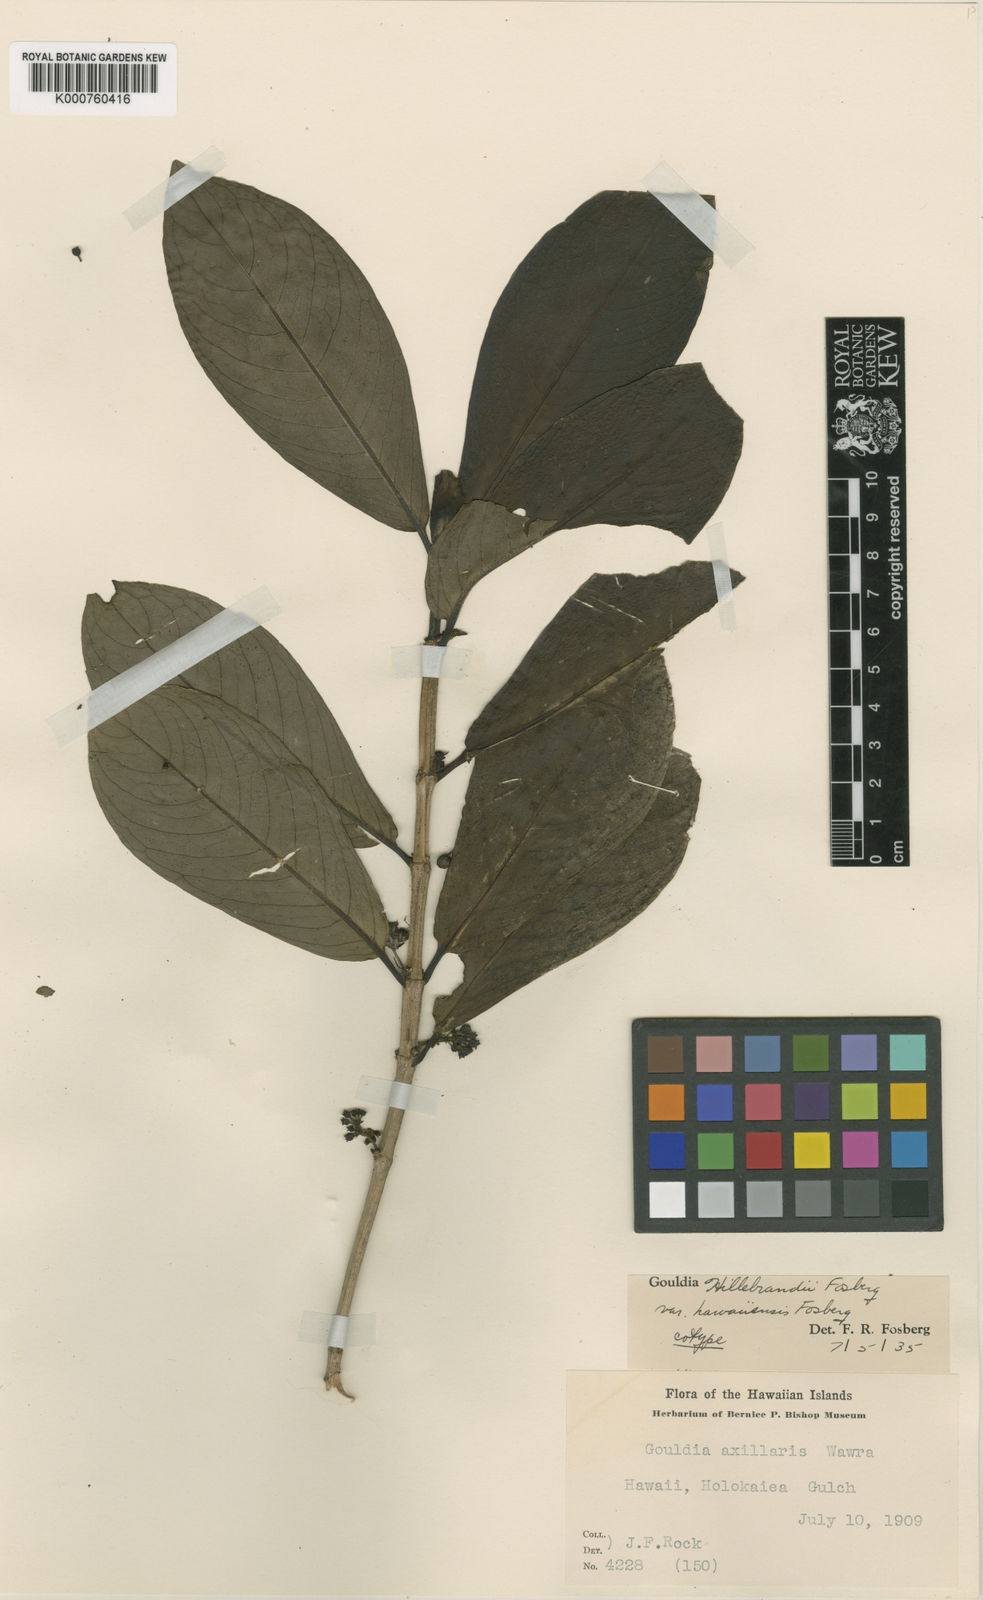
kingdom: Plantae
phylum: Tracheophyta
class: Magnoliopsida
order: Gentianales
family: Rubiaceae
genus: Kadua
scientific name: Kadua axillaris
